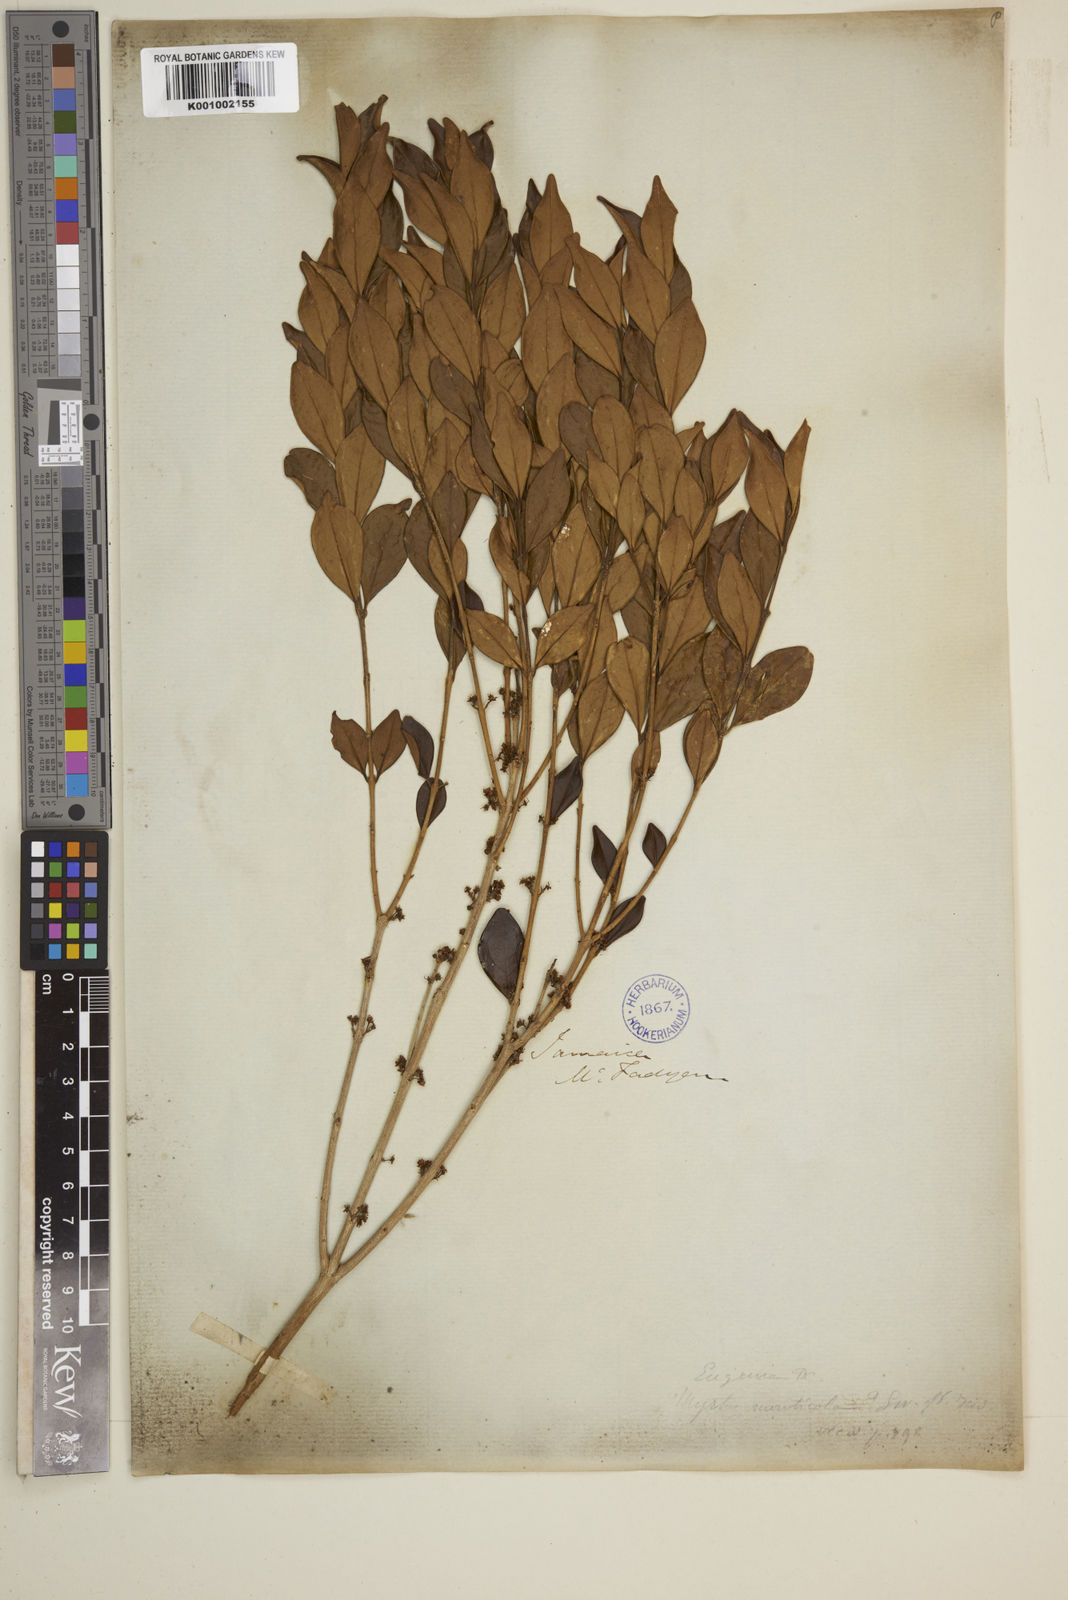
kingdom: Plantae
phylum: Tracheophyta
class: Magnoliopsida
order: Myrtales
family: Myrtaceae
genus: Eugenia
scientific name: Eugenia monticola
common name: Birds berry
